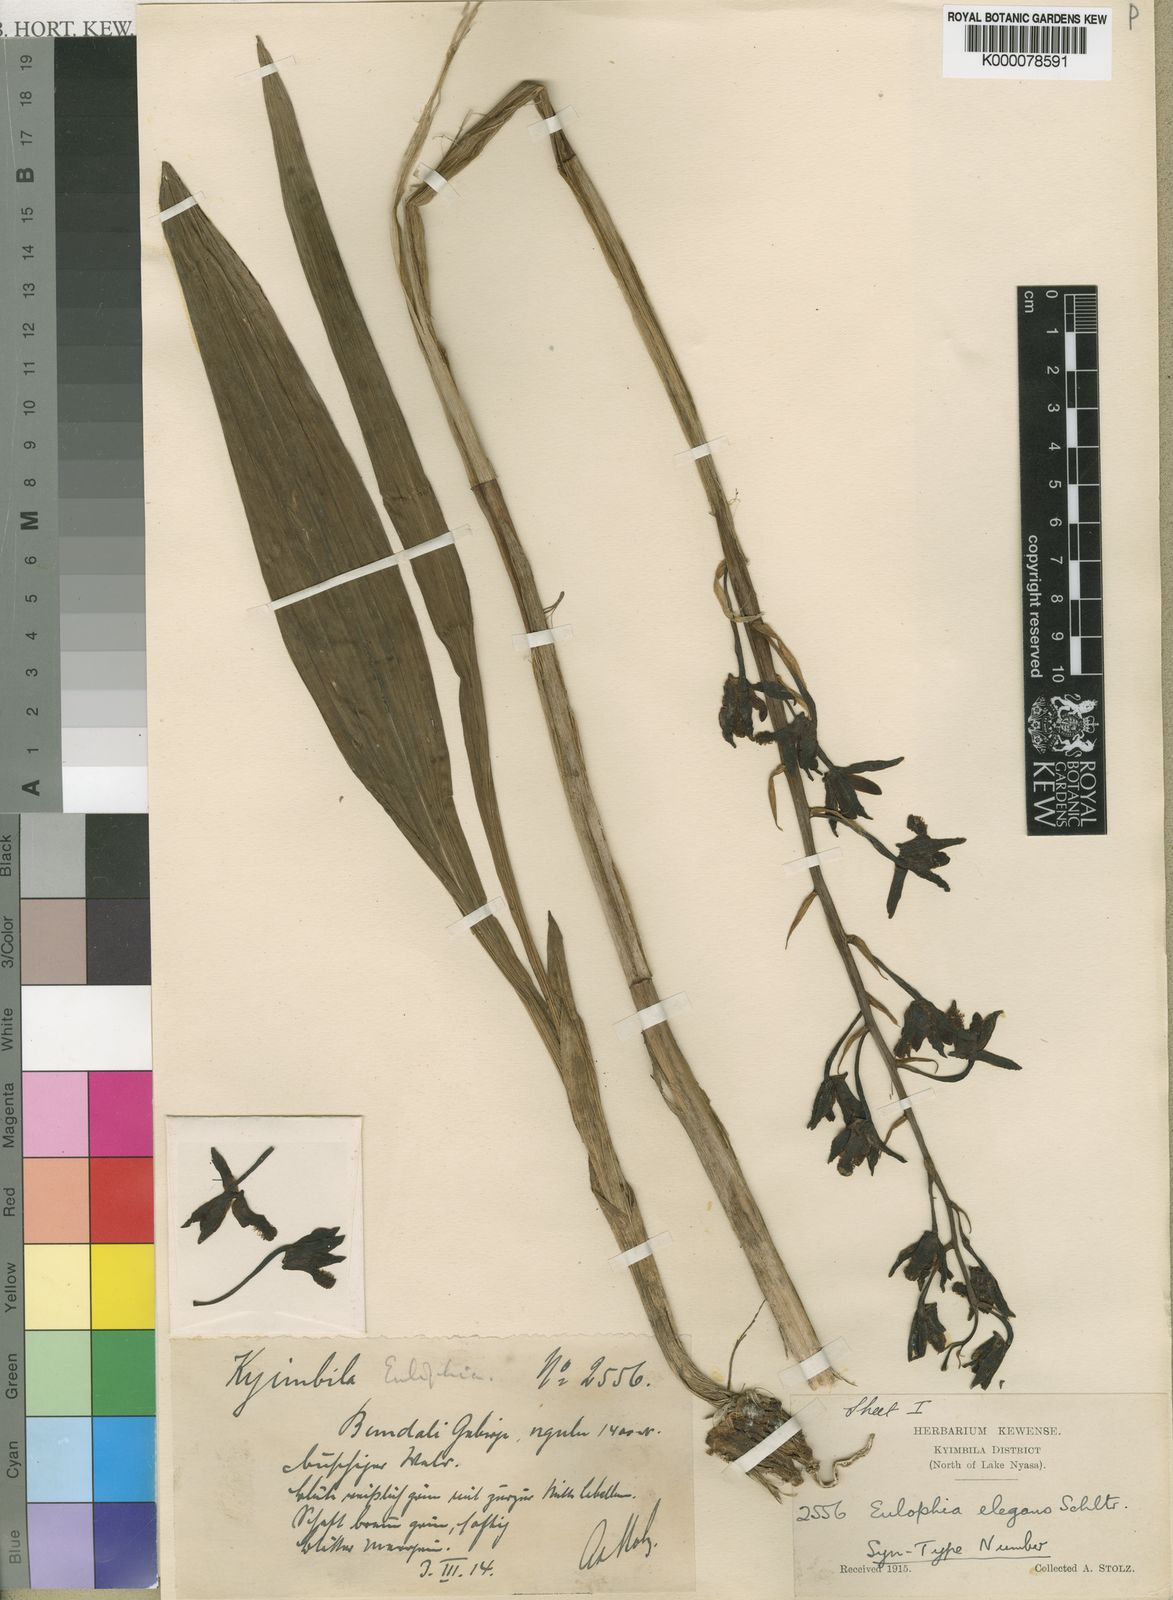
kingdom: Plantae
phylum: Tracheophyta
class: Liliopsida
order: Asparagales
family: Orchidaceae
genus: Eulophia
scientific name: Eulophia elegans
